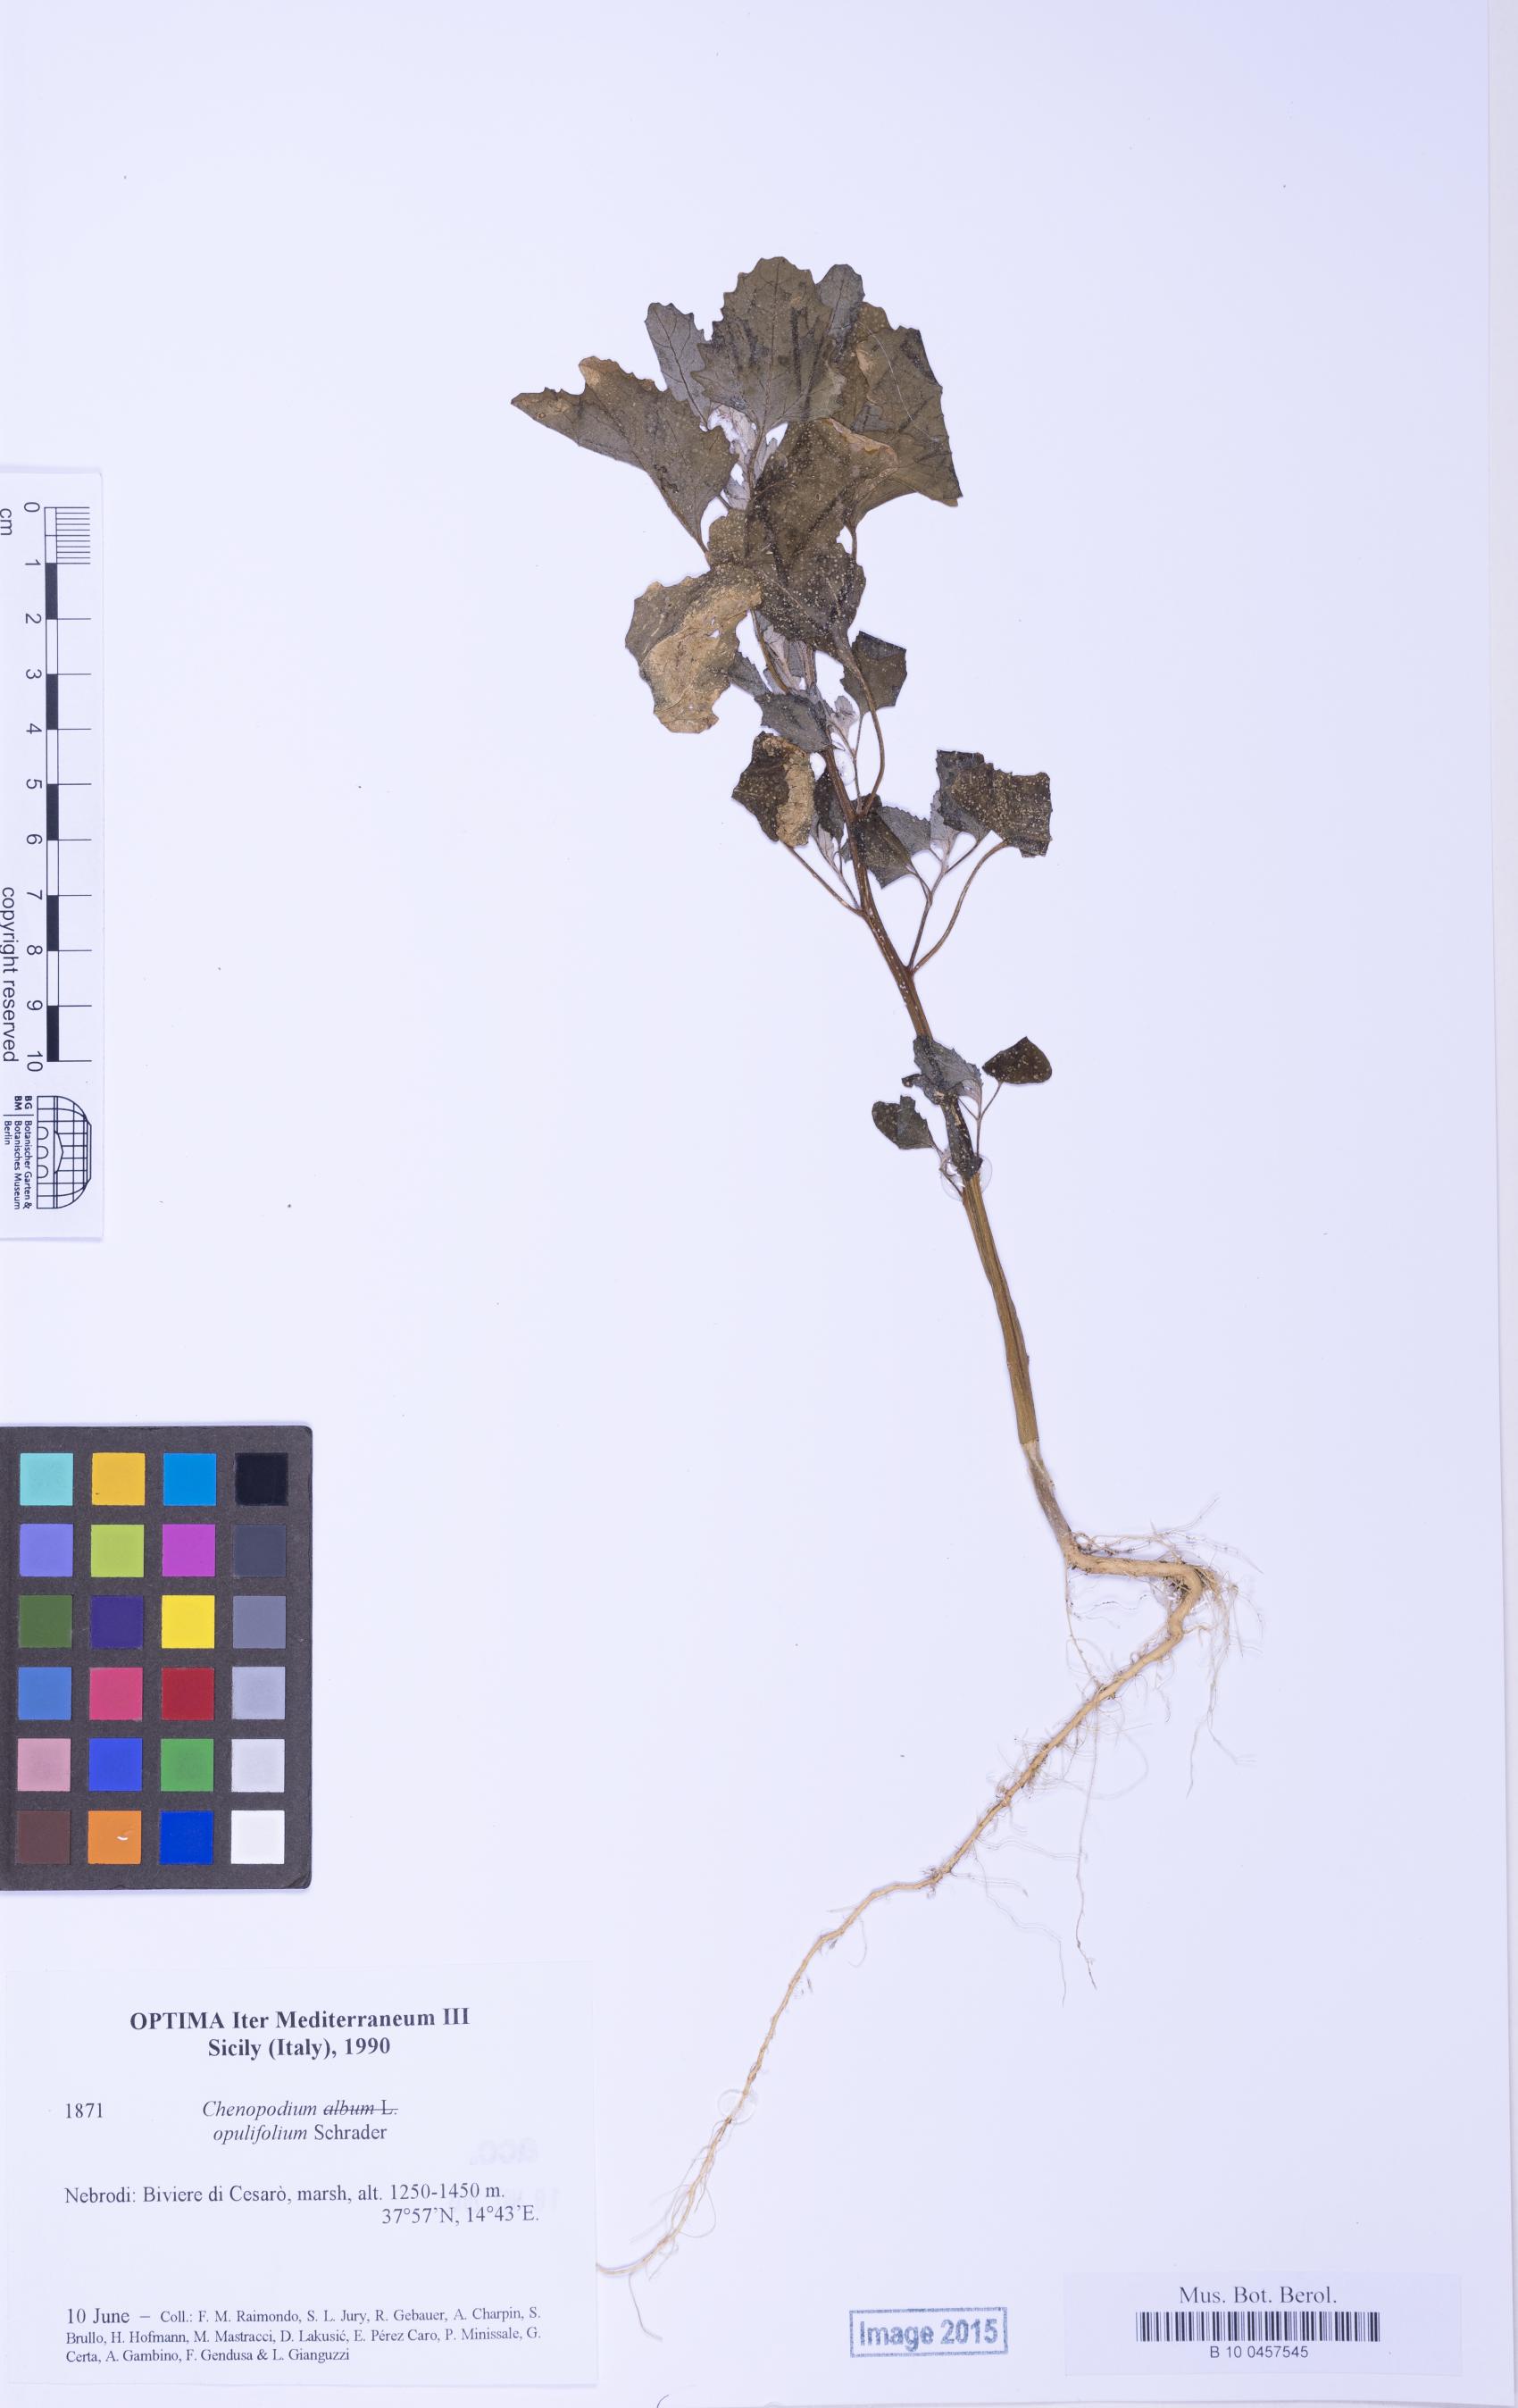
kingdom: Plantae
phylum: Tracheophyta
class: Magnoliopsida
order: Caryophyllales
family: Amaranthaceae
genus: Chenopodium
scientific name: Chenopodium opulifolium
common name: Grey goosefoot
